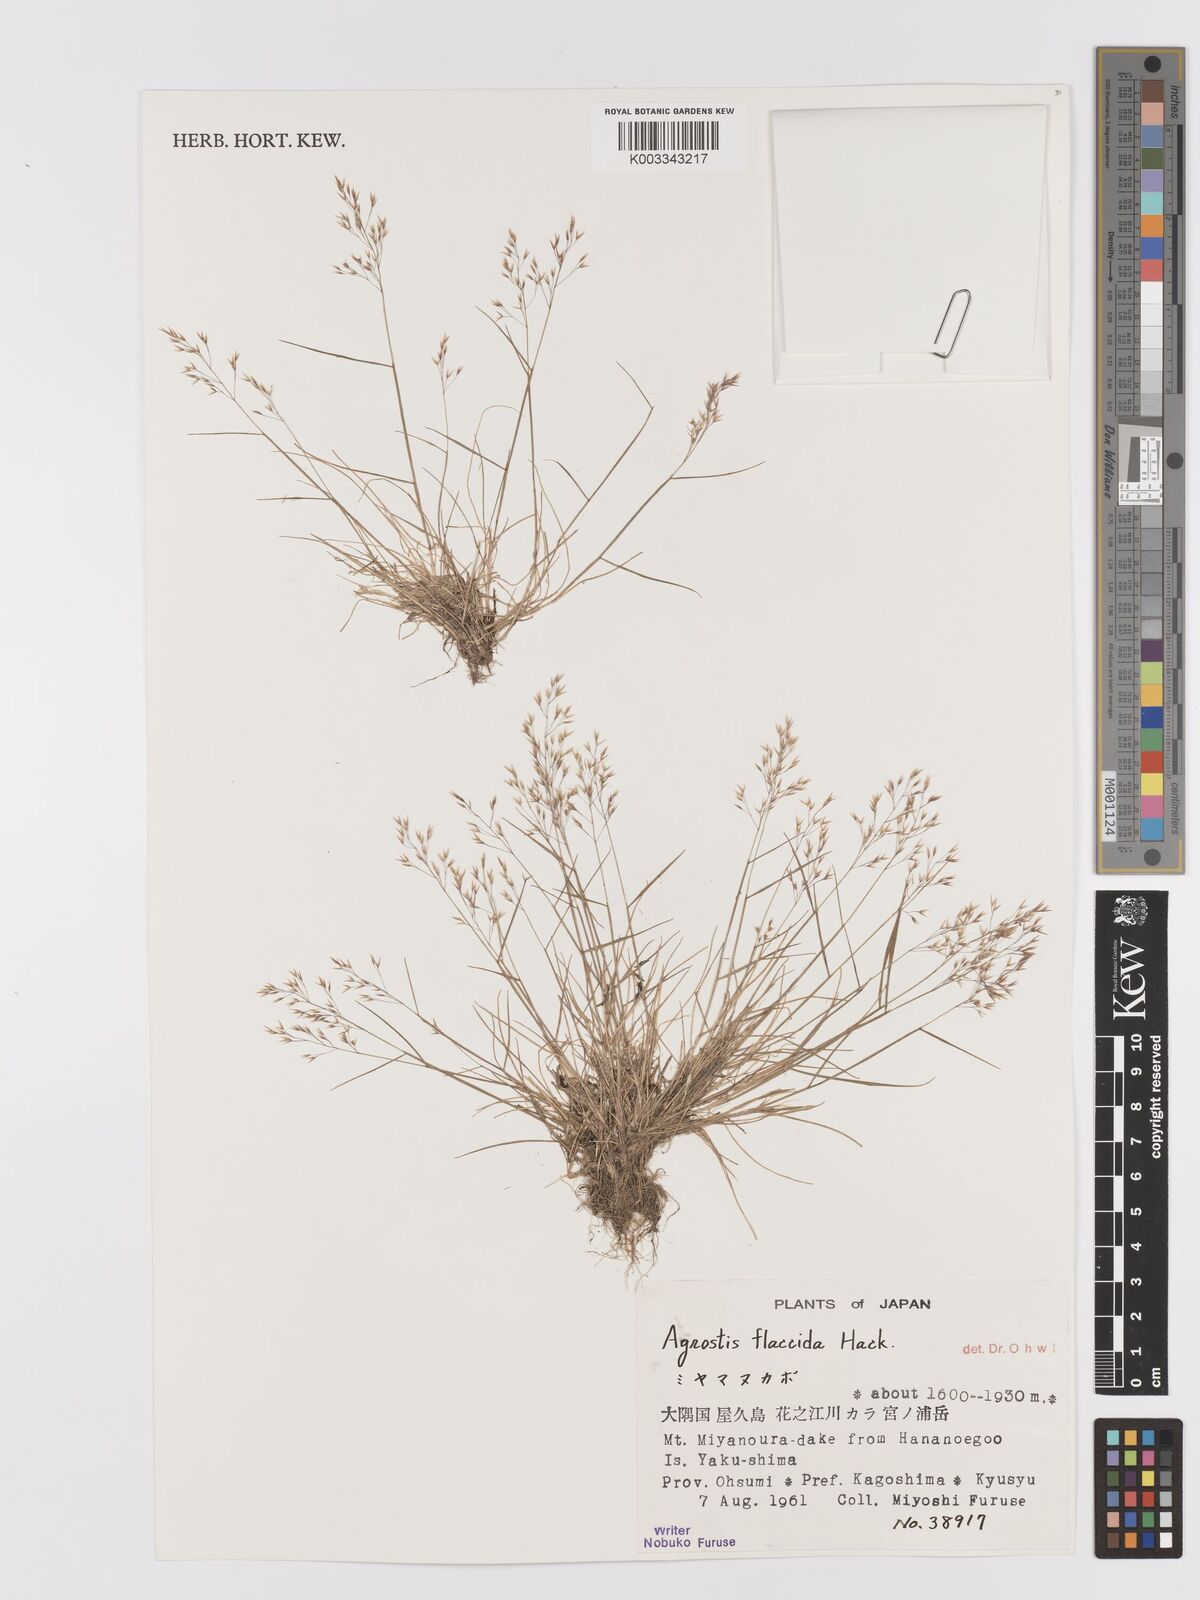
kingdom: Plantae
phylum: Tracheophyta
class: Liliopsida
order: Poales
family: Poaceae
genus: Agrostis
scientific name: Agrostis flaccida
